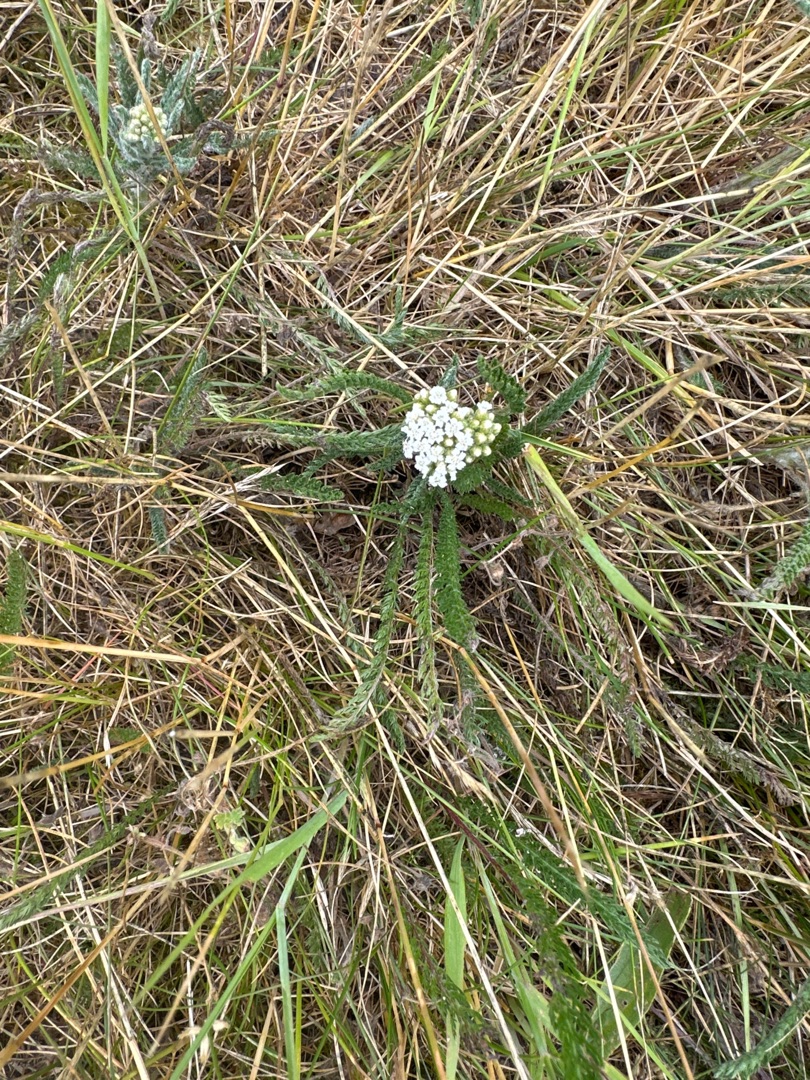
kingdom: Plantae
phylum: Tracheophyta
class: Magnoliopsida
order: Asterales
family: Asteraceae
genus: Achillea
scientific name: Achillea millefolium
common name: Almindelig røllike
